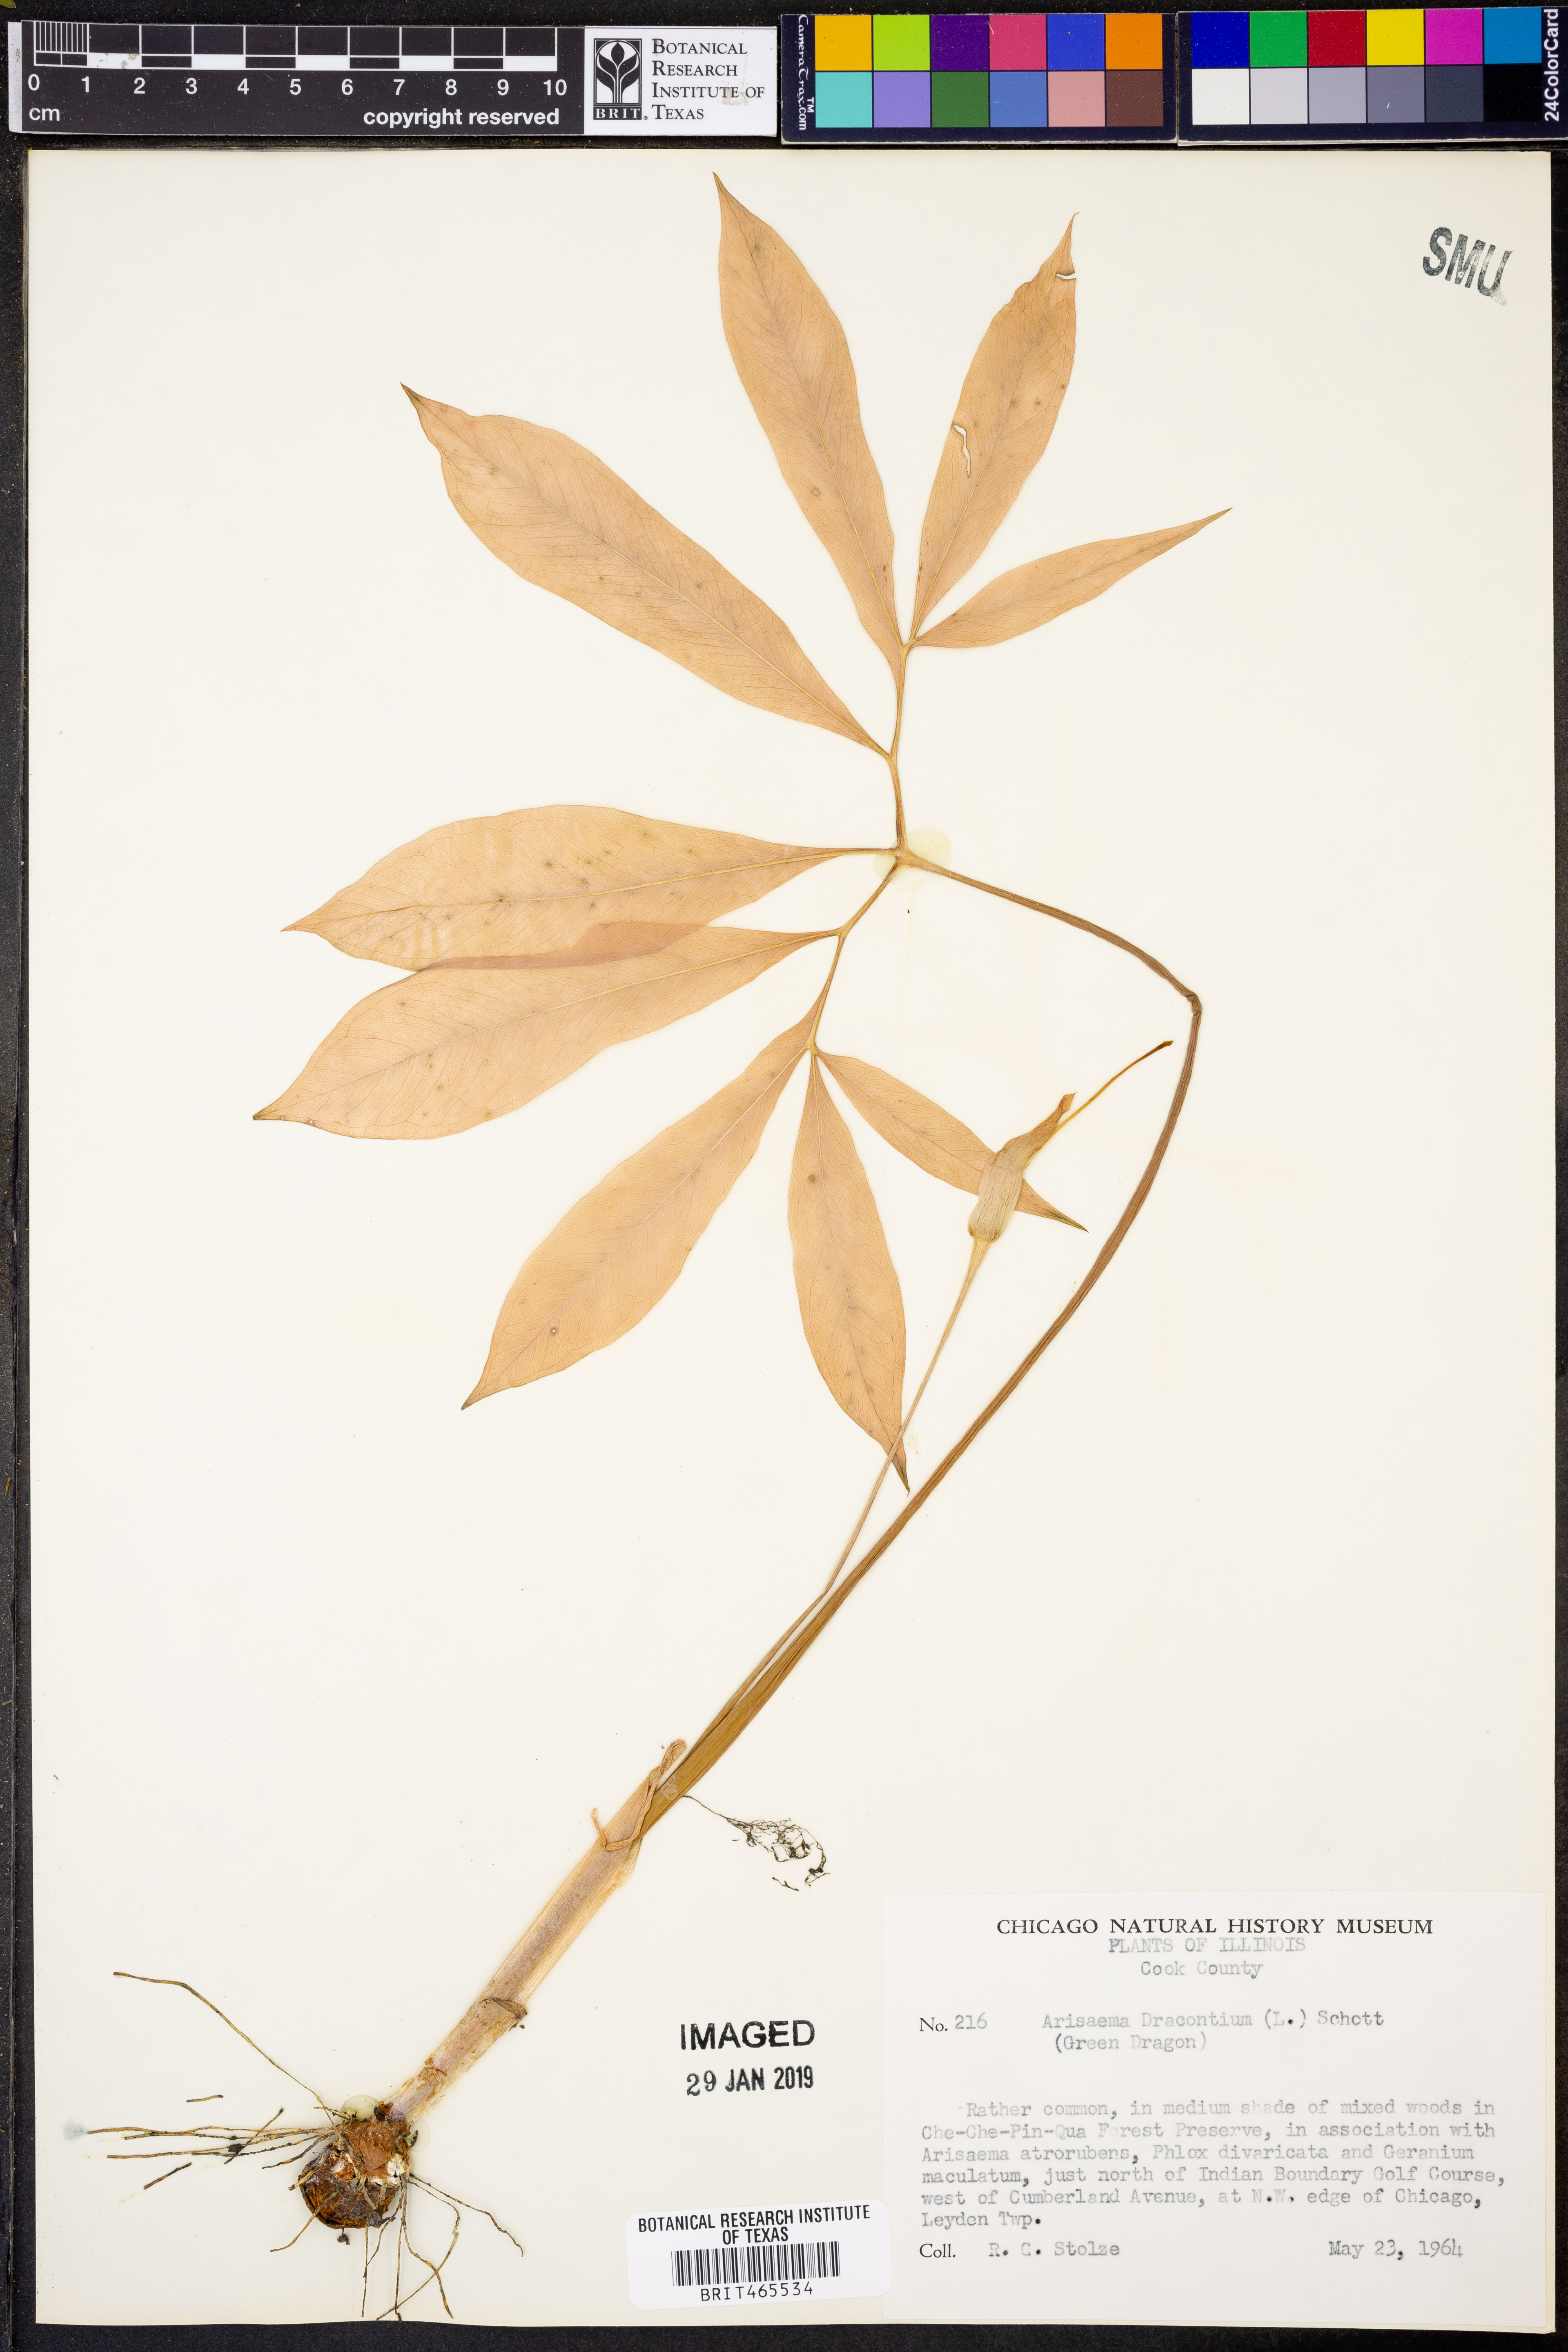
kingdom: Plantae
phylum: Tracheophyta
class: Liliopsida
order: Alismatales
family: Araceae
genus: Arisaema
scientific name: Arisaema dracontium
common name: Dragon-arum
